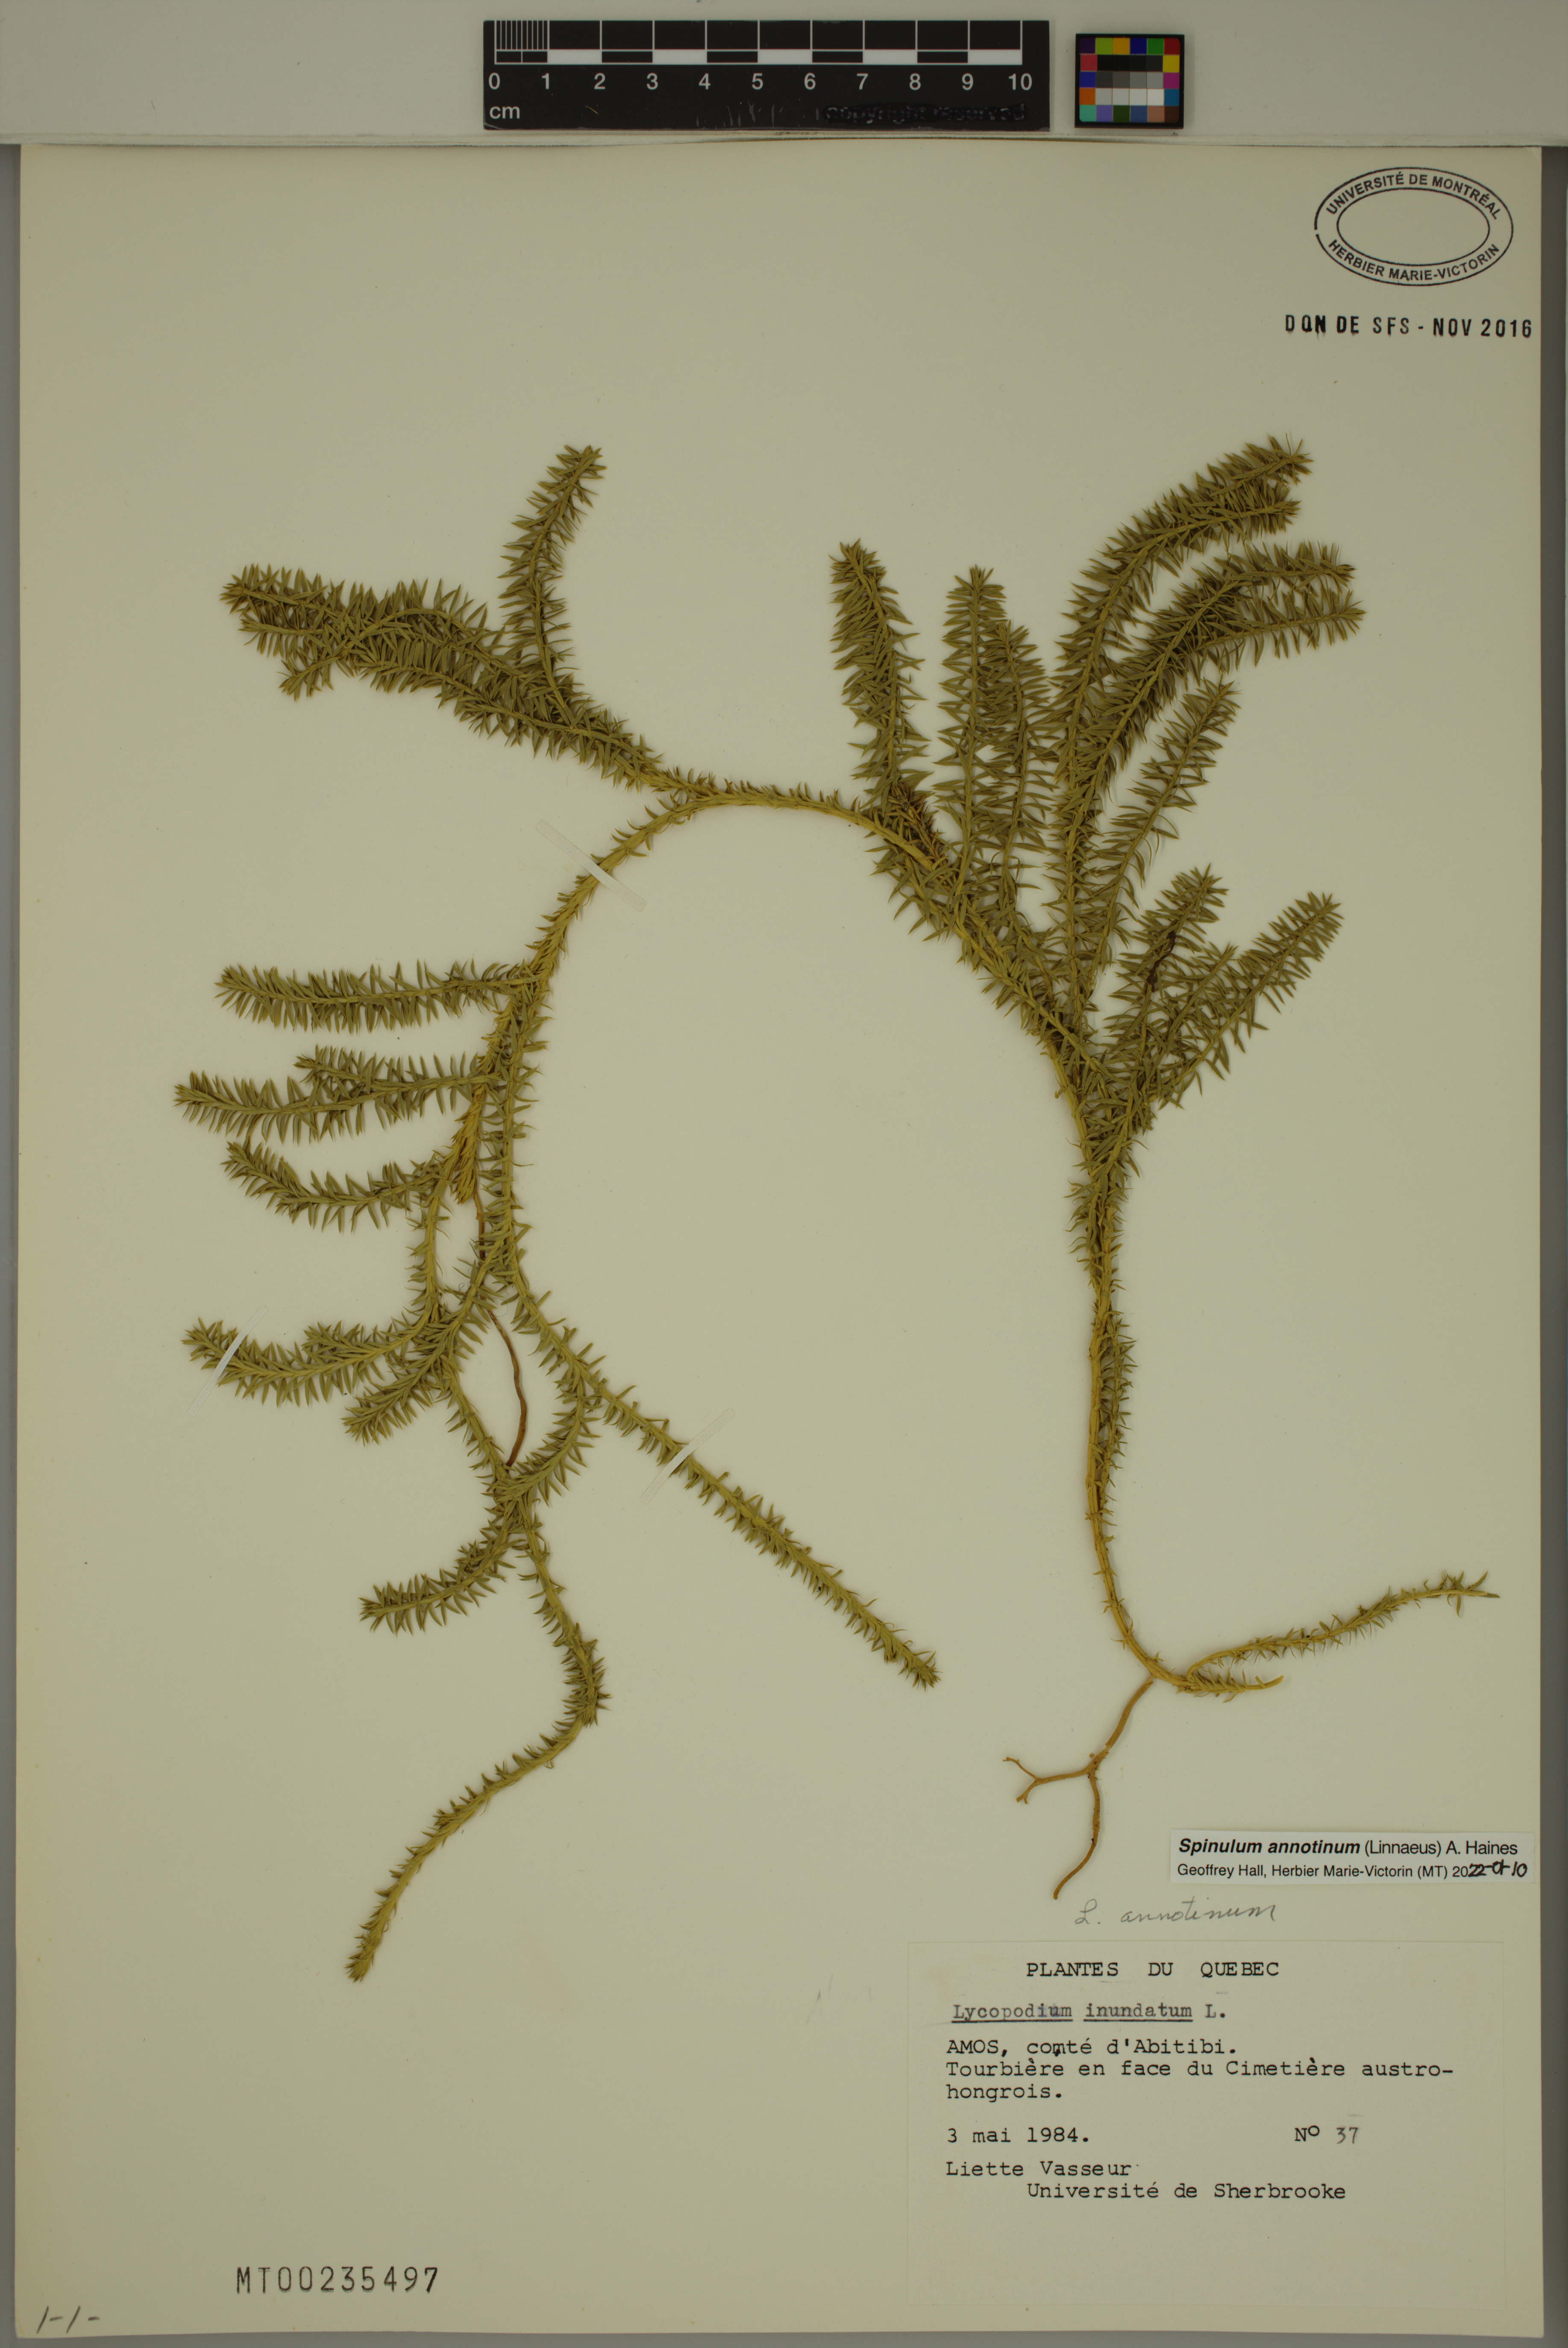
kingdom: Plantae
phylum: Tracheophyta
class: Lycopodiopsida
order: Lycopodiales
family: Lycopodiaceae
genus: Spinulum
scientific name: Spinulum annotinum
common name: Interrupted club-moss
